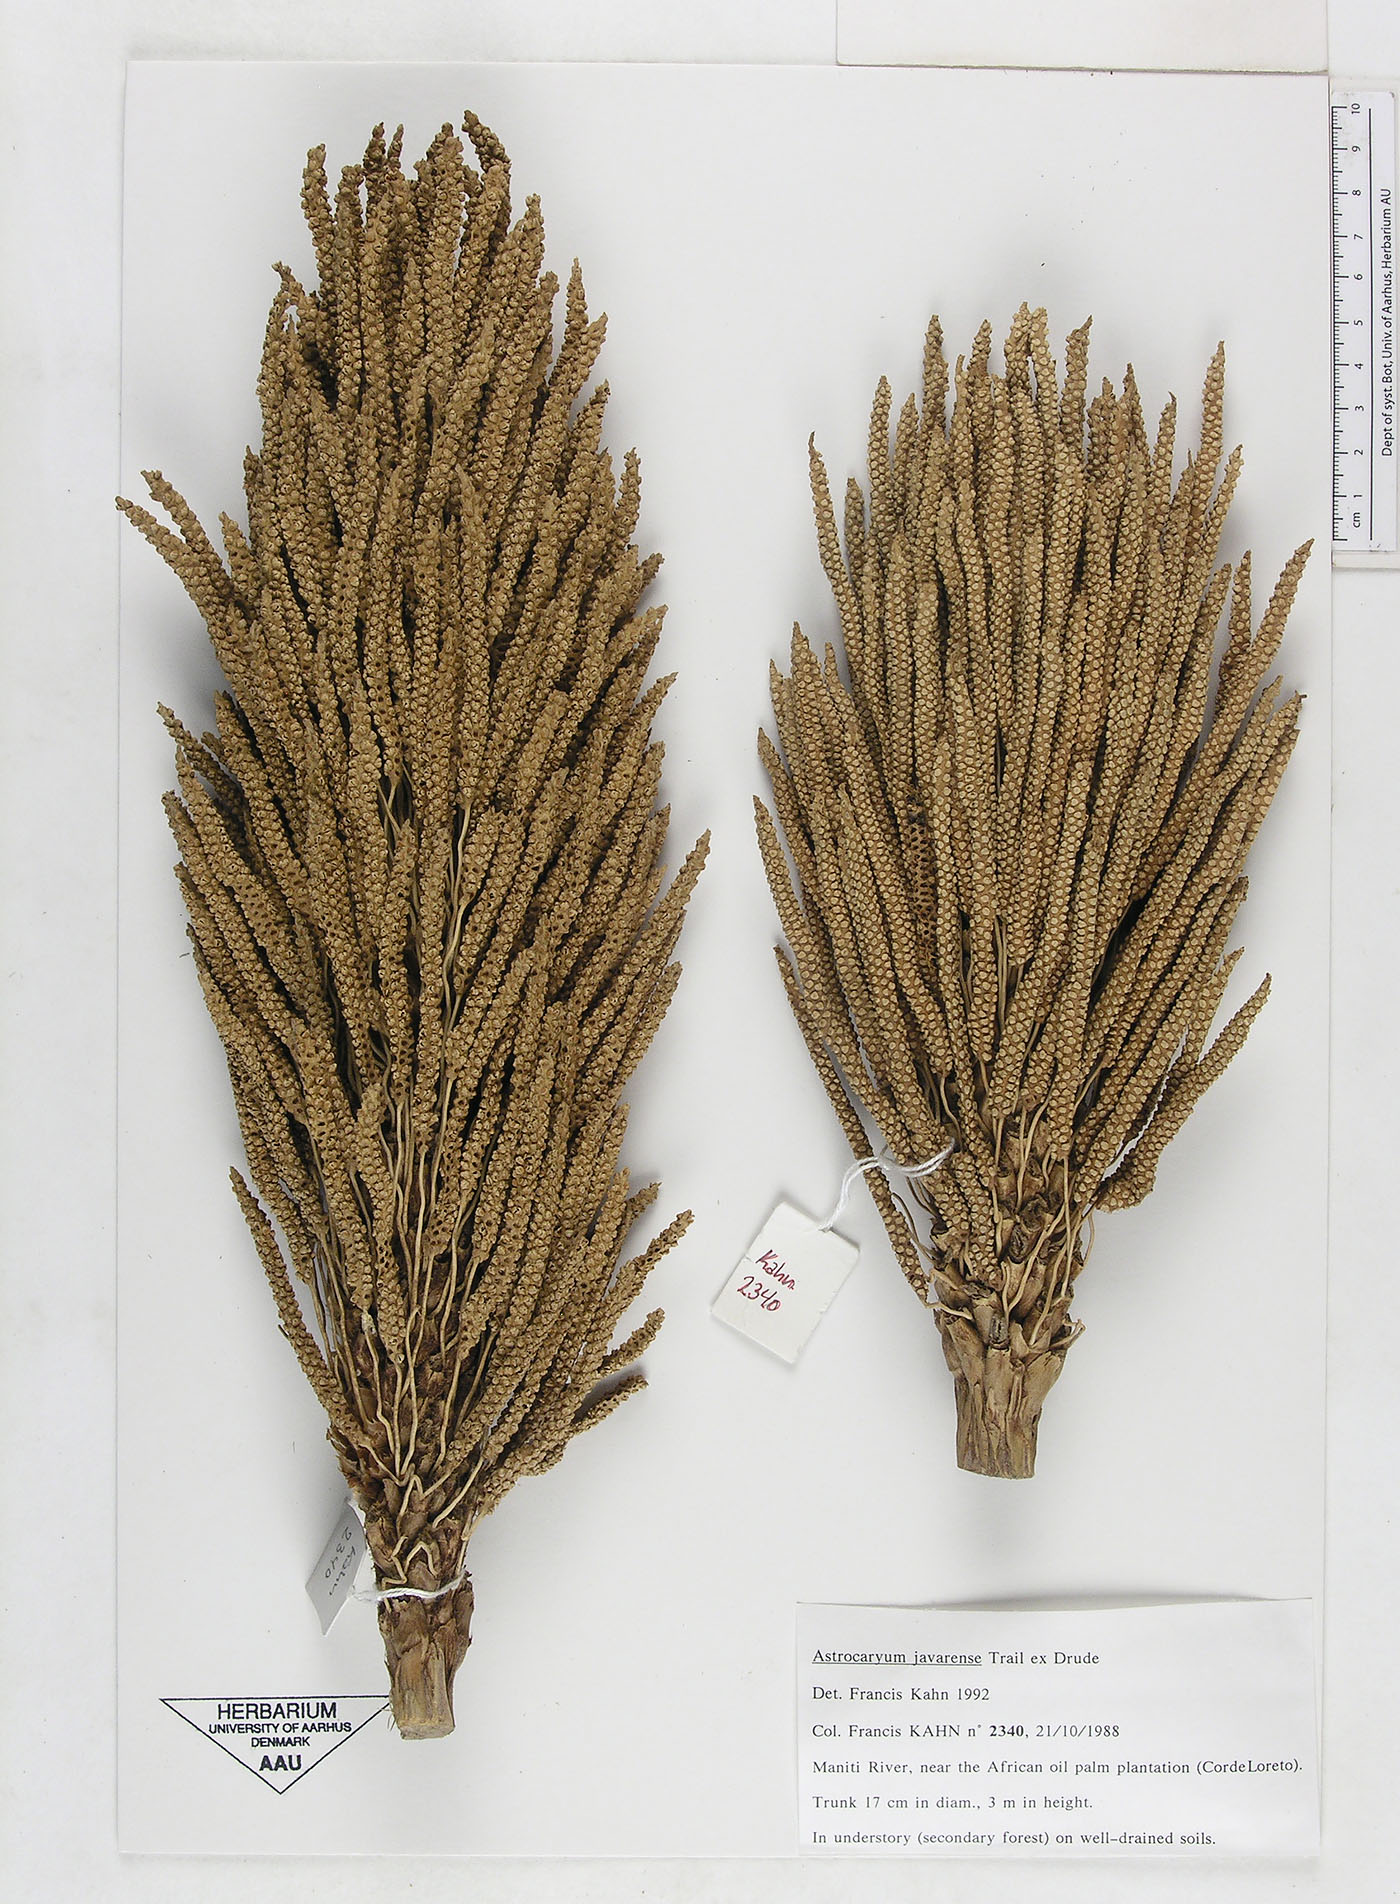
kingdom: Plantae
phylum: Tracheophyta
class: Liliopsida
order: Arecales
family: Arecaceae
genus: Astrocaryum
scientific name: Astrocaryum javarense
